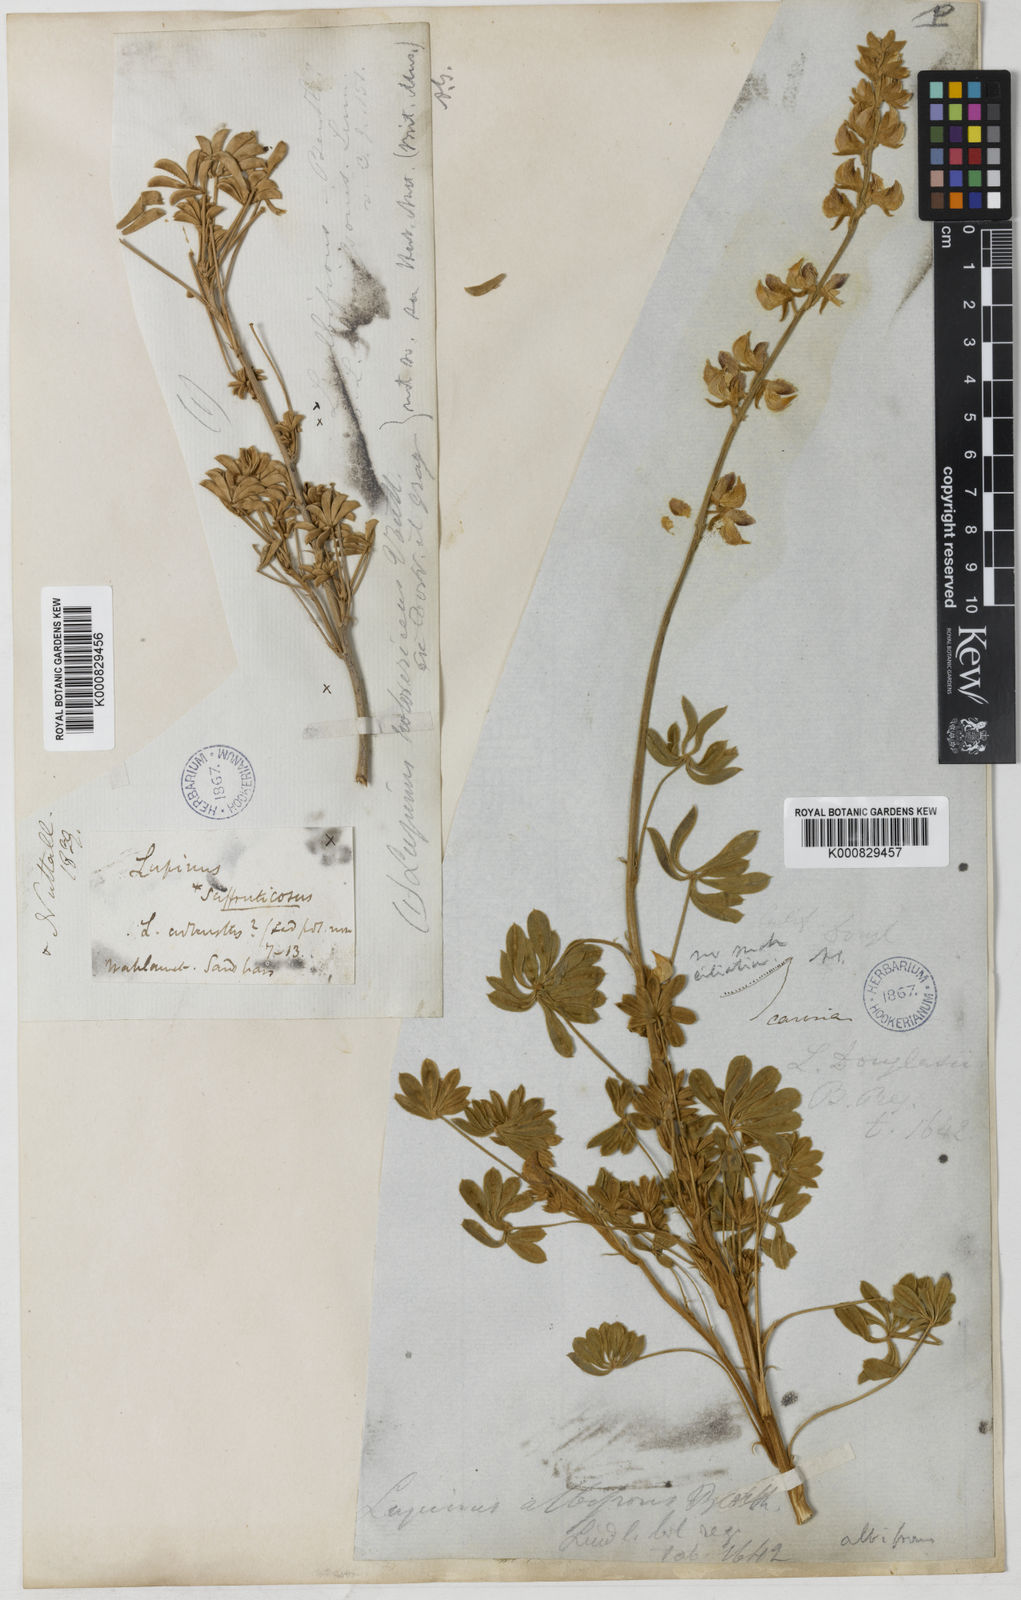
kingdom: Plantae
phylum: Tracheophyta
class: Magnoliopsida
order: Fabales
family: Fabaceae
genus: Lupinus
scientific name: Lupinus albifrons
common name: Foothill lupine
